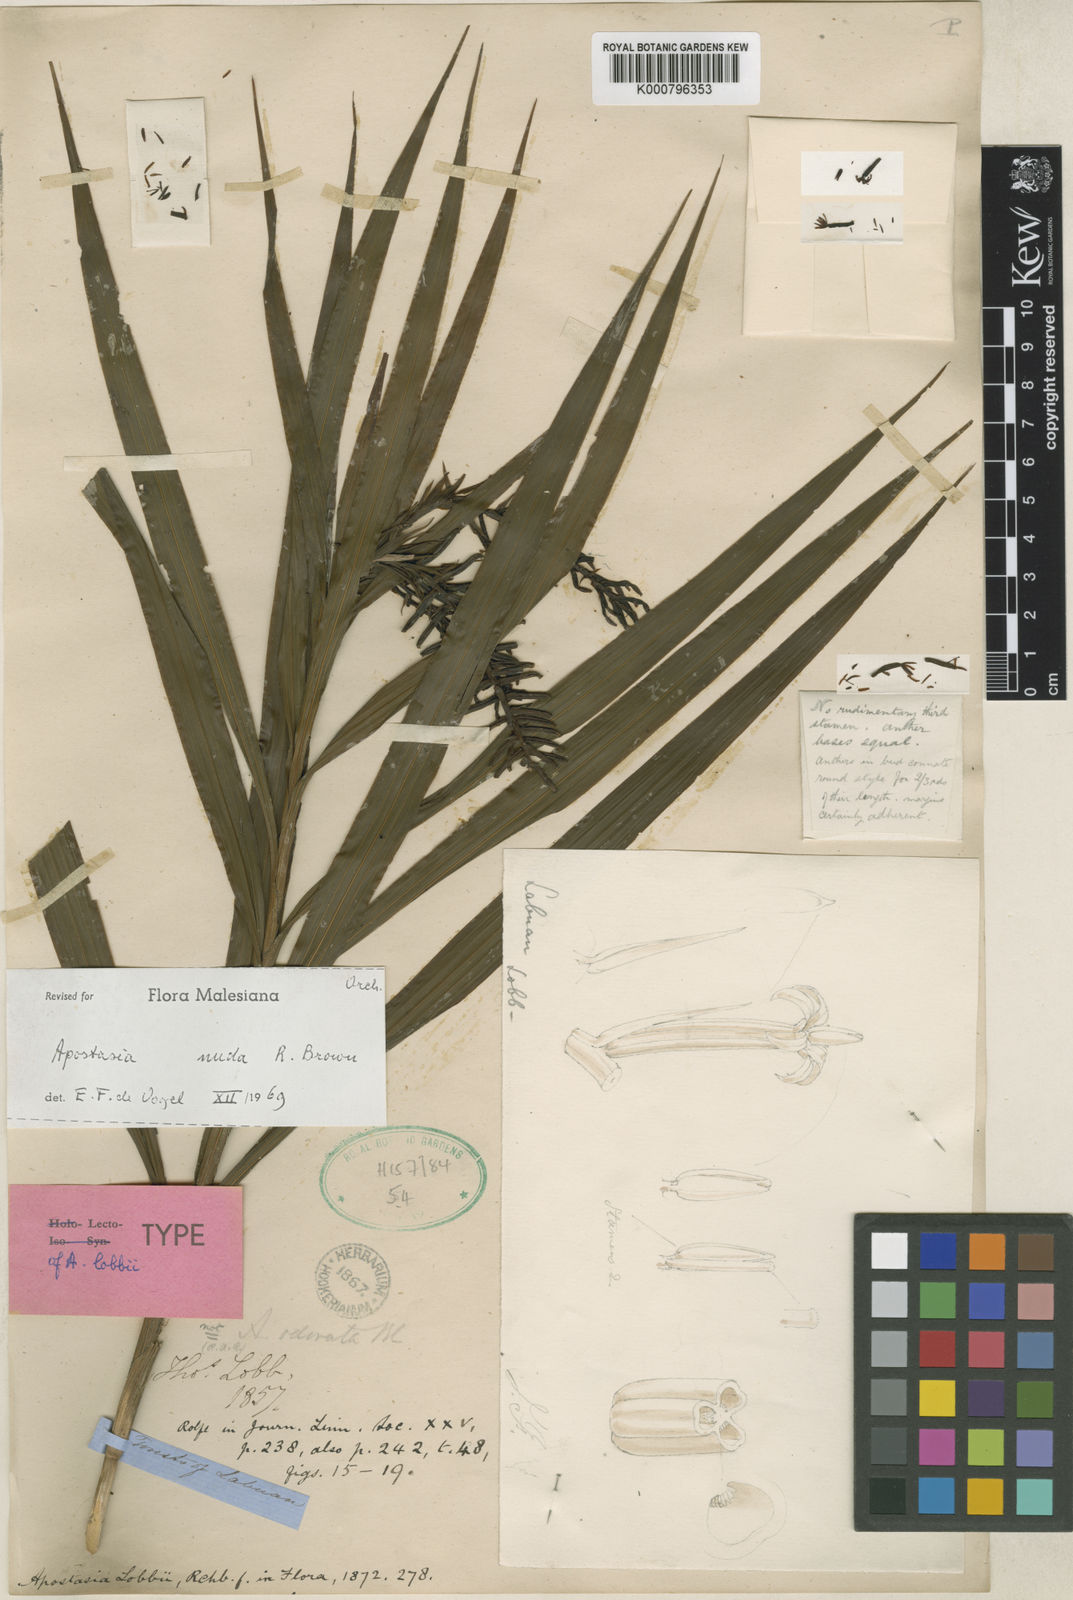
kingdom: Plantae
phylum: Tracheophyta
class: Liliopsida
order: Asparagales
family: Orchidaceae
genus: Apostasia
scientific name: Apostasia nuda
